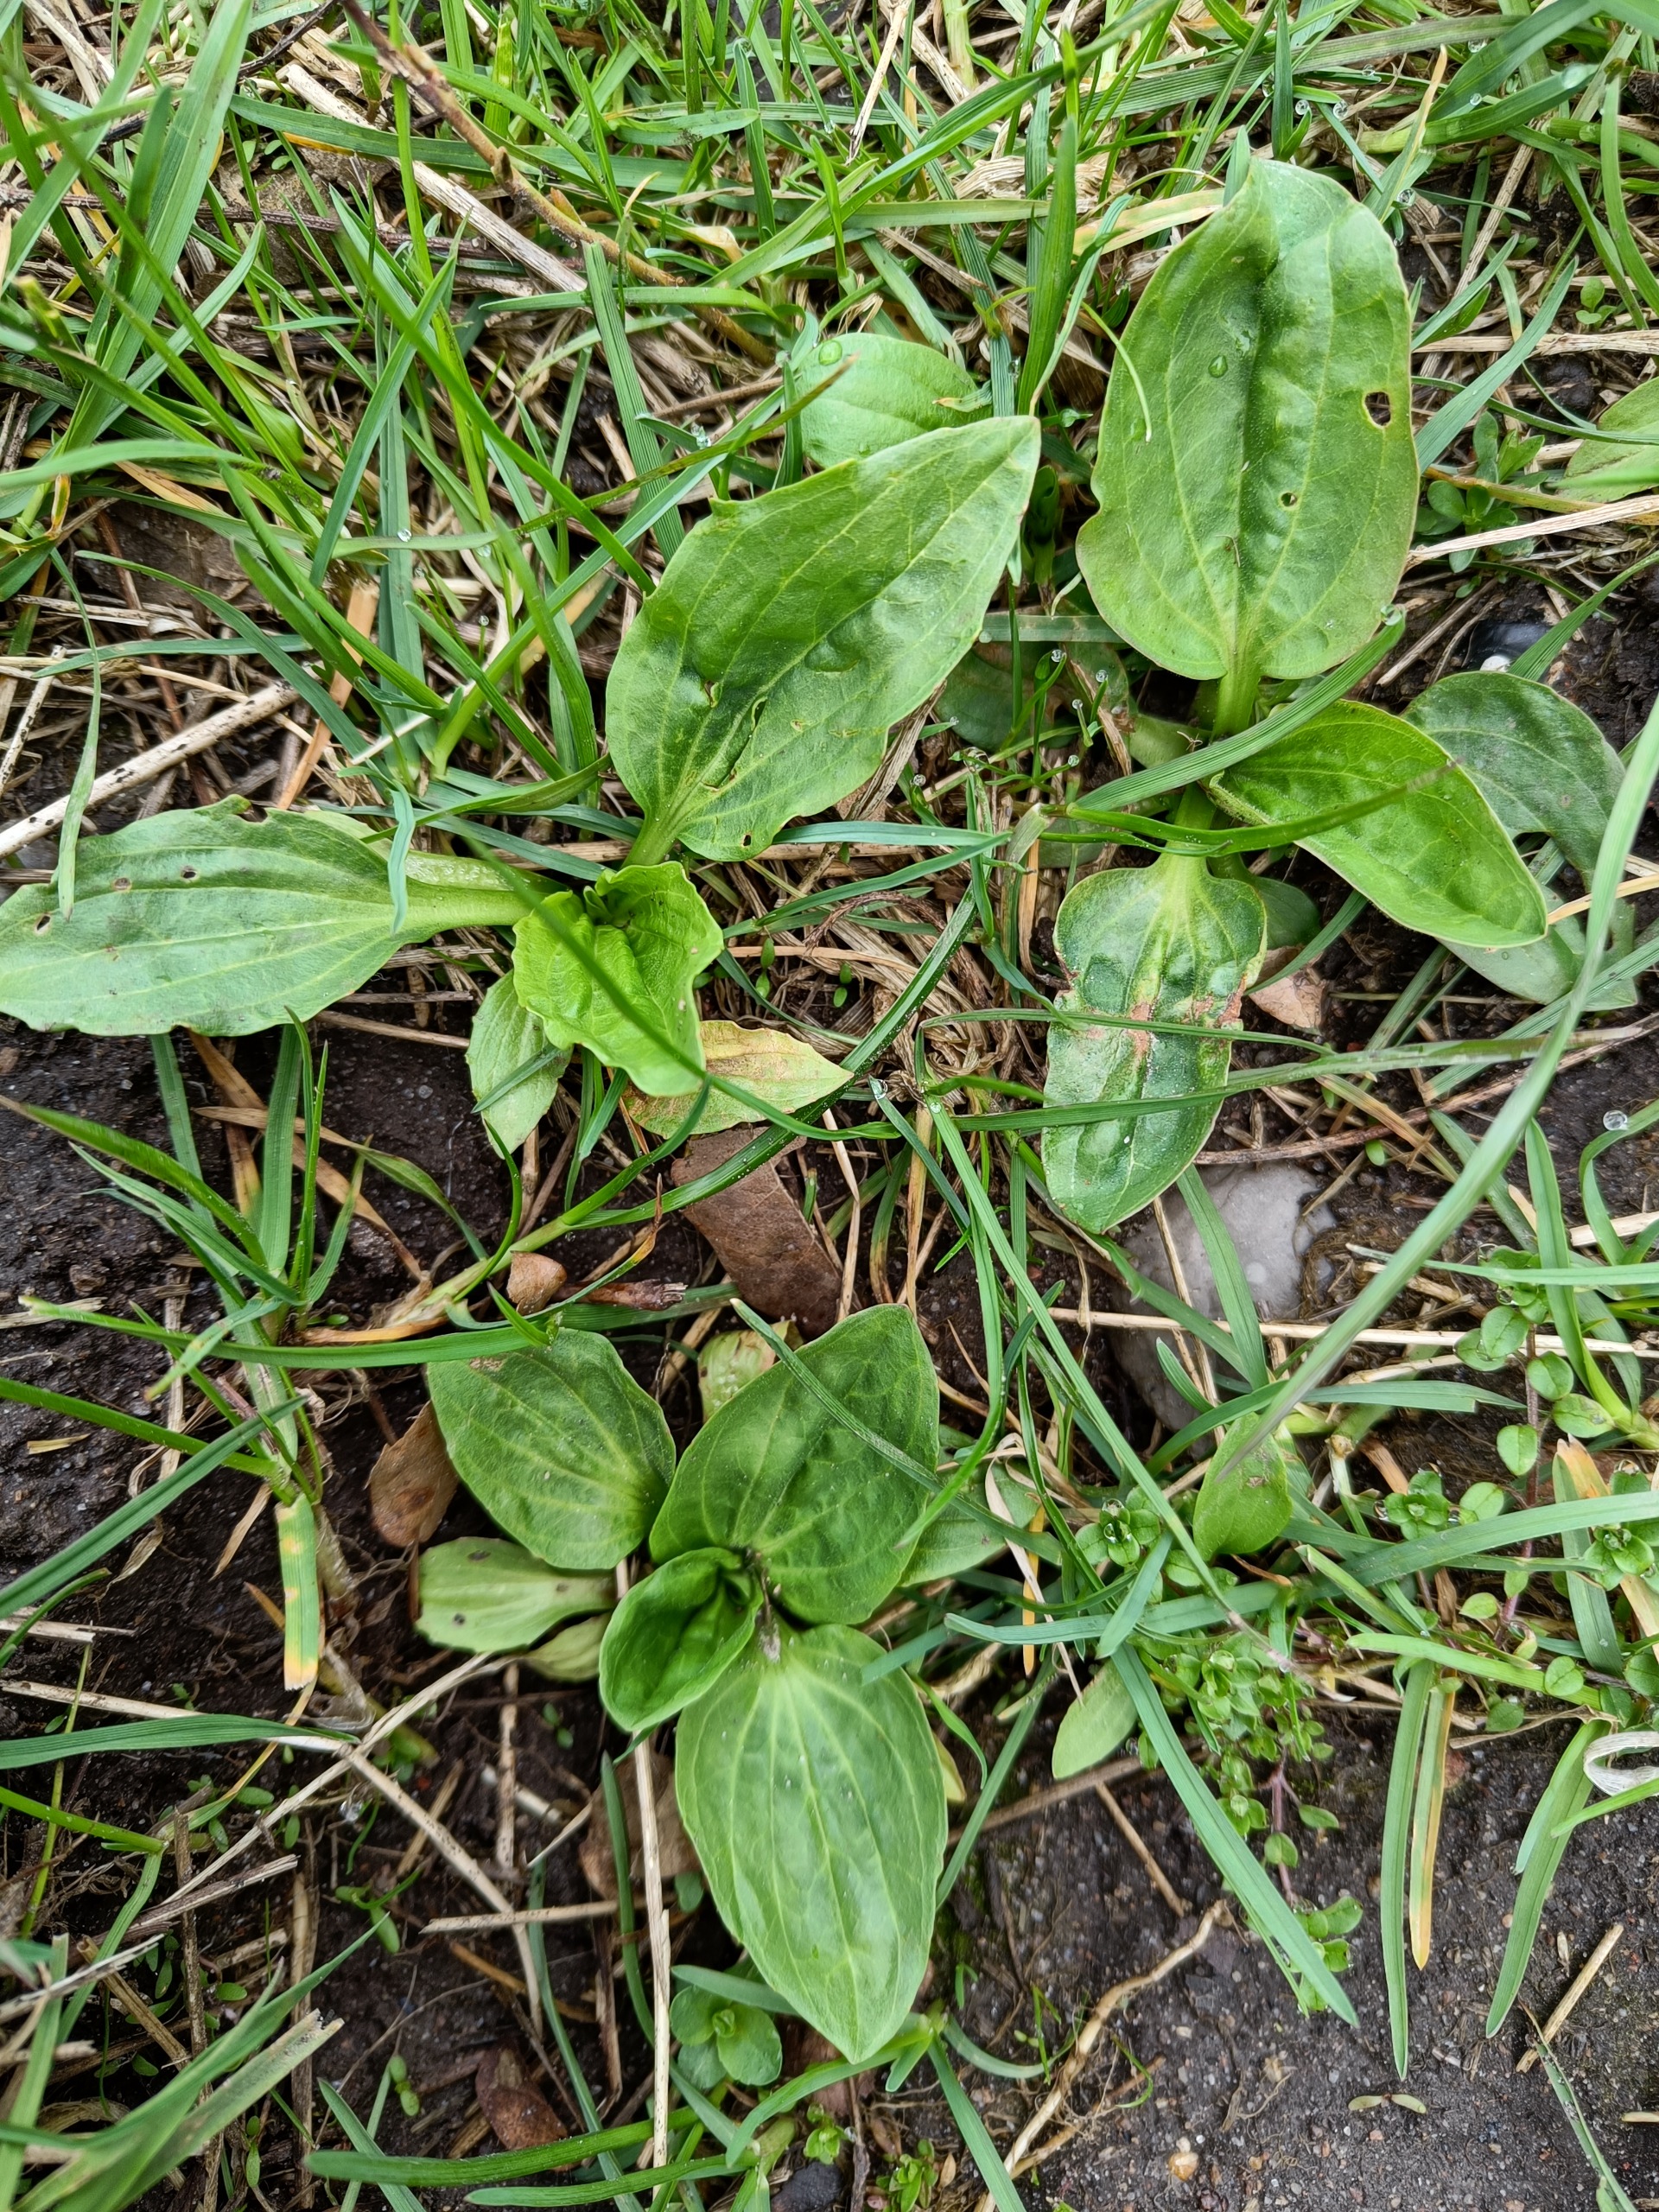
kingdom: Plantae
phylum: Tracheophyta
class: Magnoliopsida
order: Lamiales
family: Plantaginaceae
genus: Plantago
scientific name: Plantago major
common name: Glat vejbred
